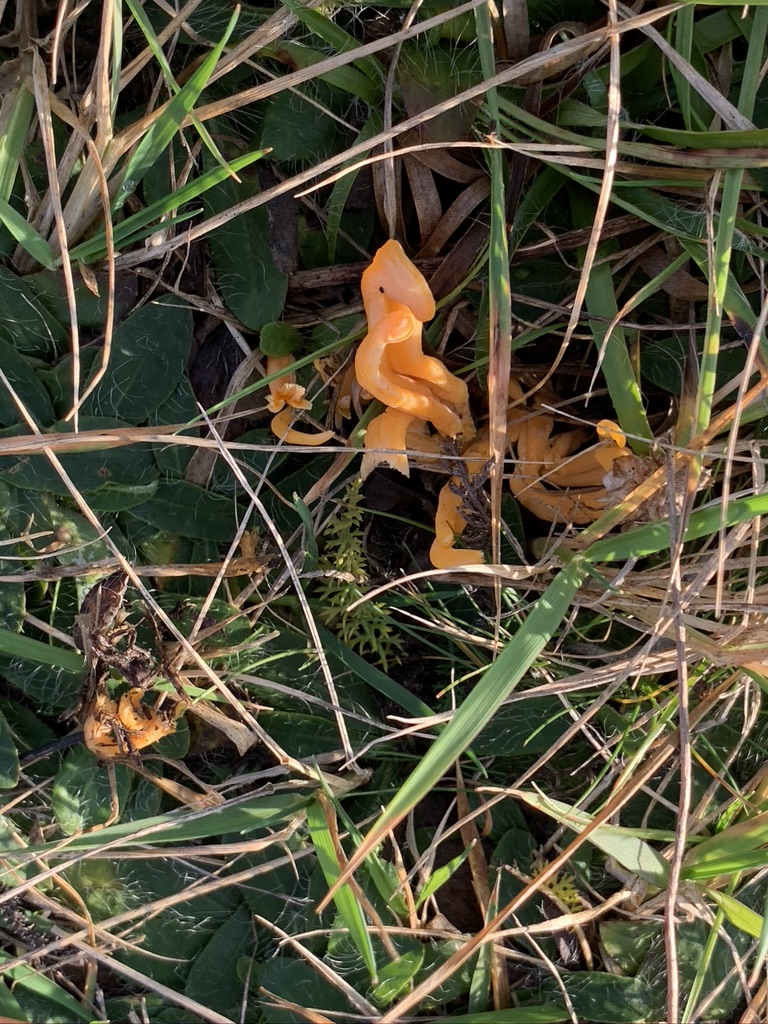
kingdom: Fungi
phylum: Basidiomycota
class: Agaricomycetes
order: Agaricales
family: Clavariaceae
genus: Clavulinopsis
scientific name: Clavulinopsis luteoalba
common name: abrikos-køllesvamp
